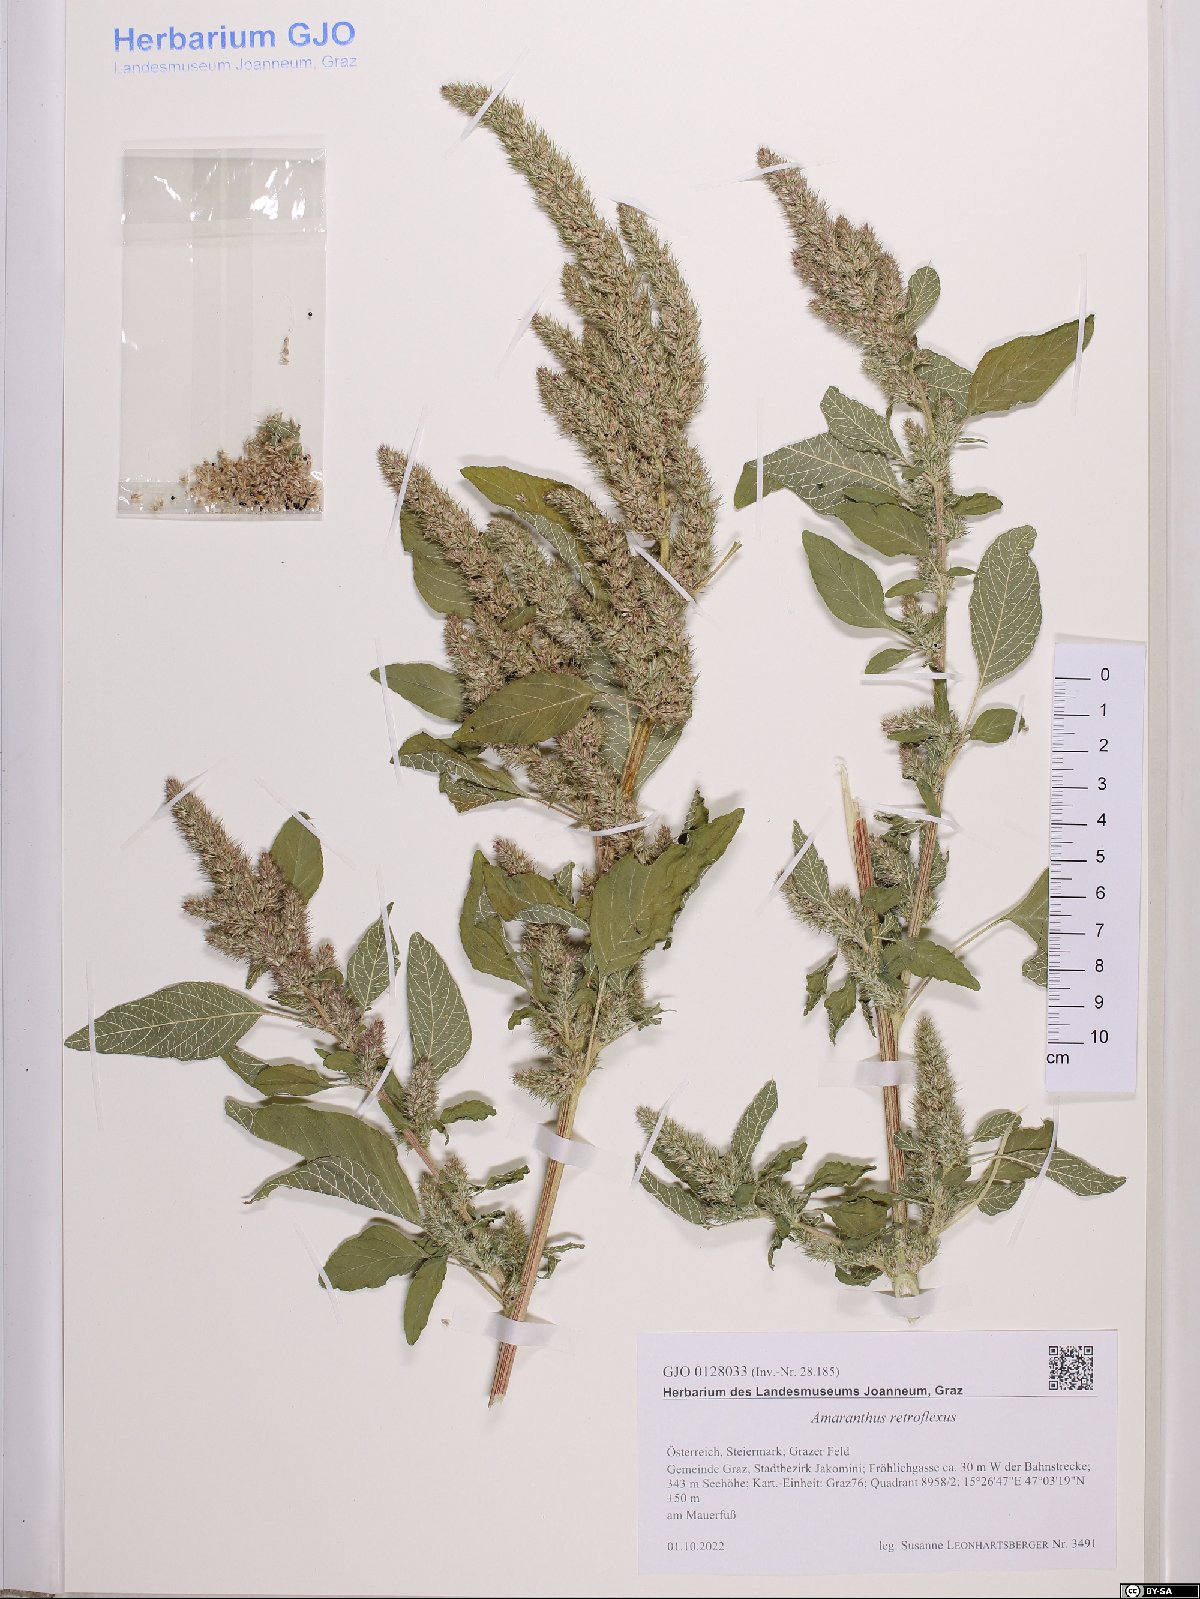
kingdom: Plantae
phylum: Tracheophyta
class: Magnoliopsida
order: Caryophyllales
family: Amaranthaceae
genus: Amaranthus
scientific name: Amaranthus retroflexus
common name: Redroot amaranth
